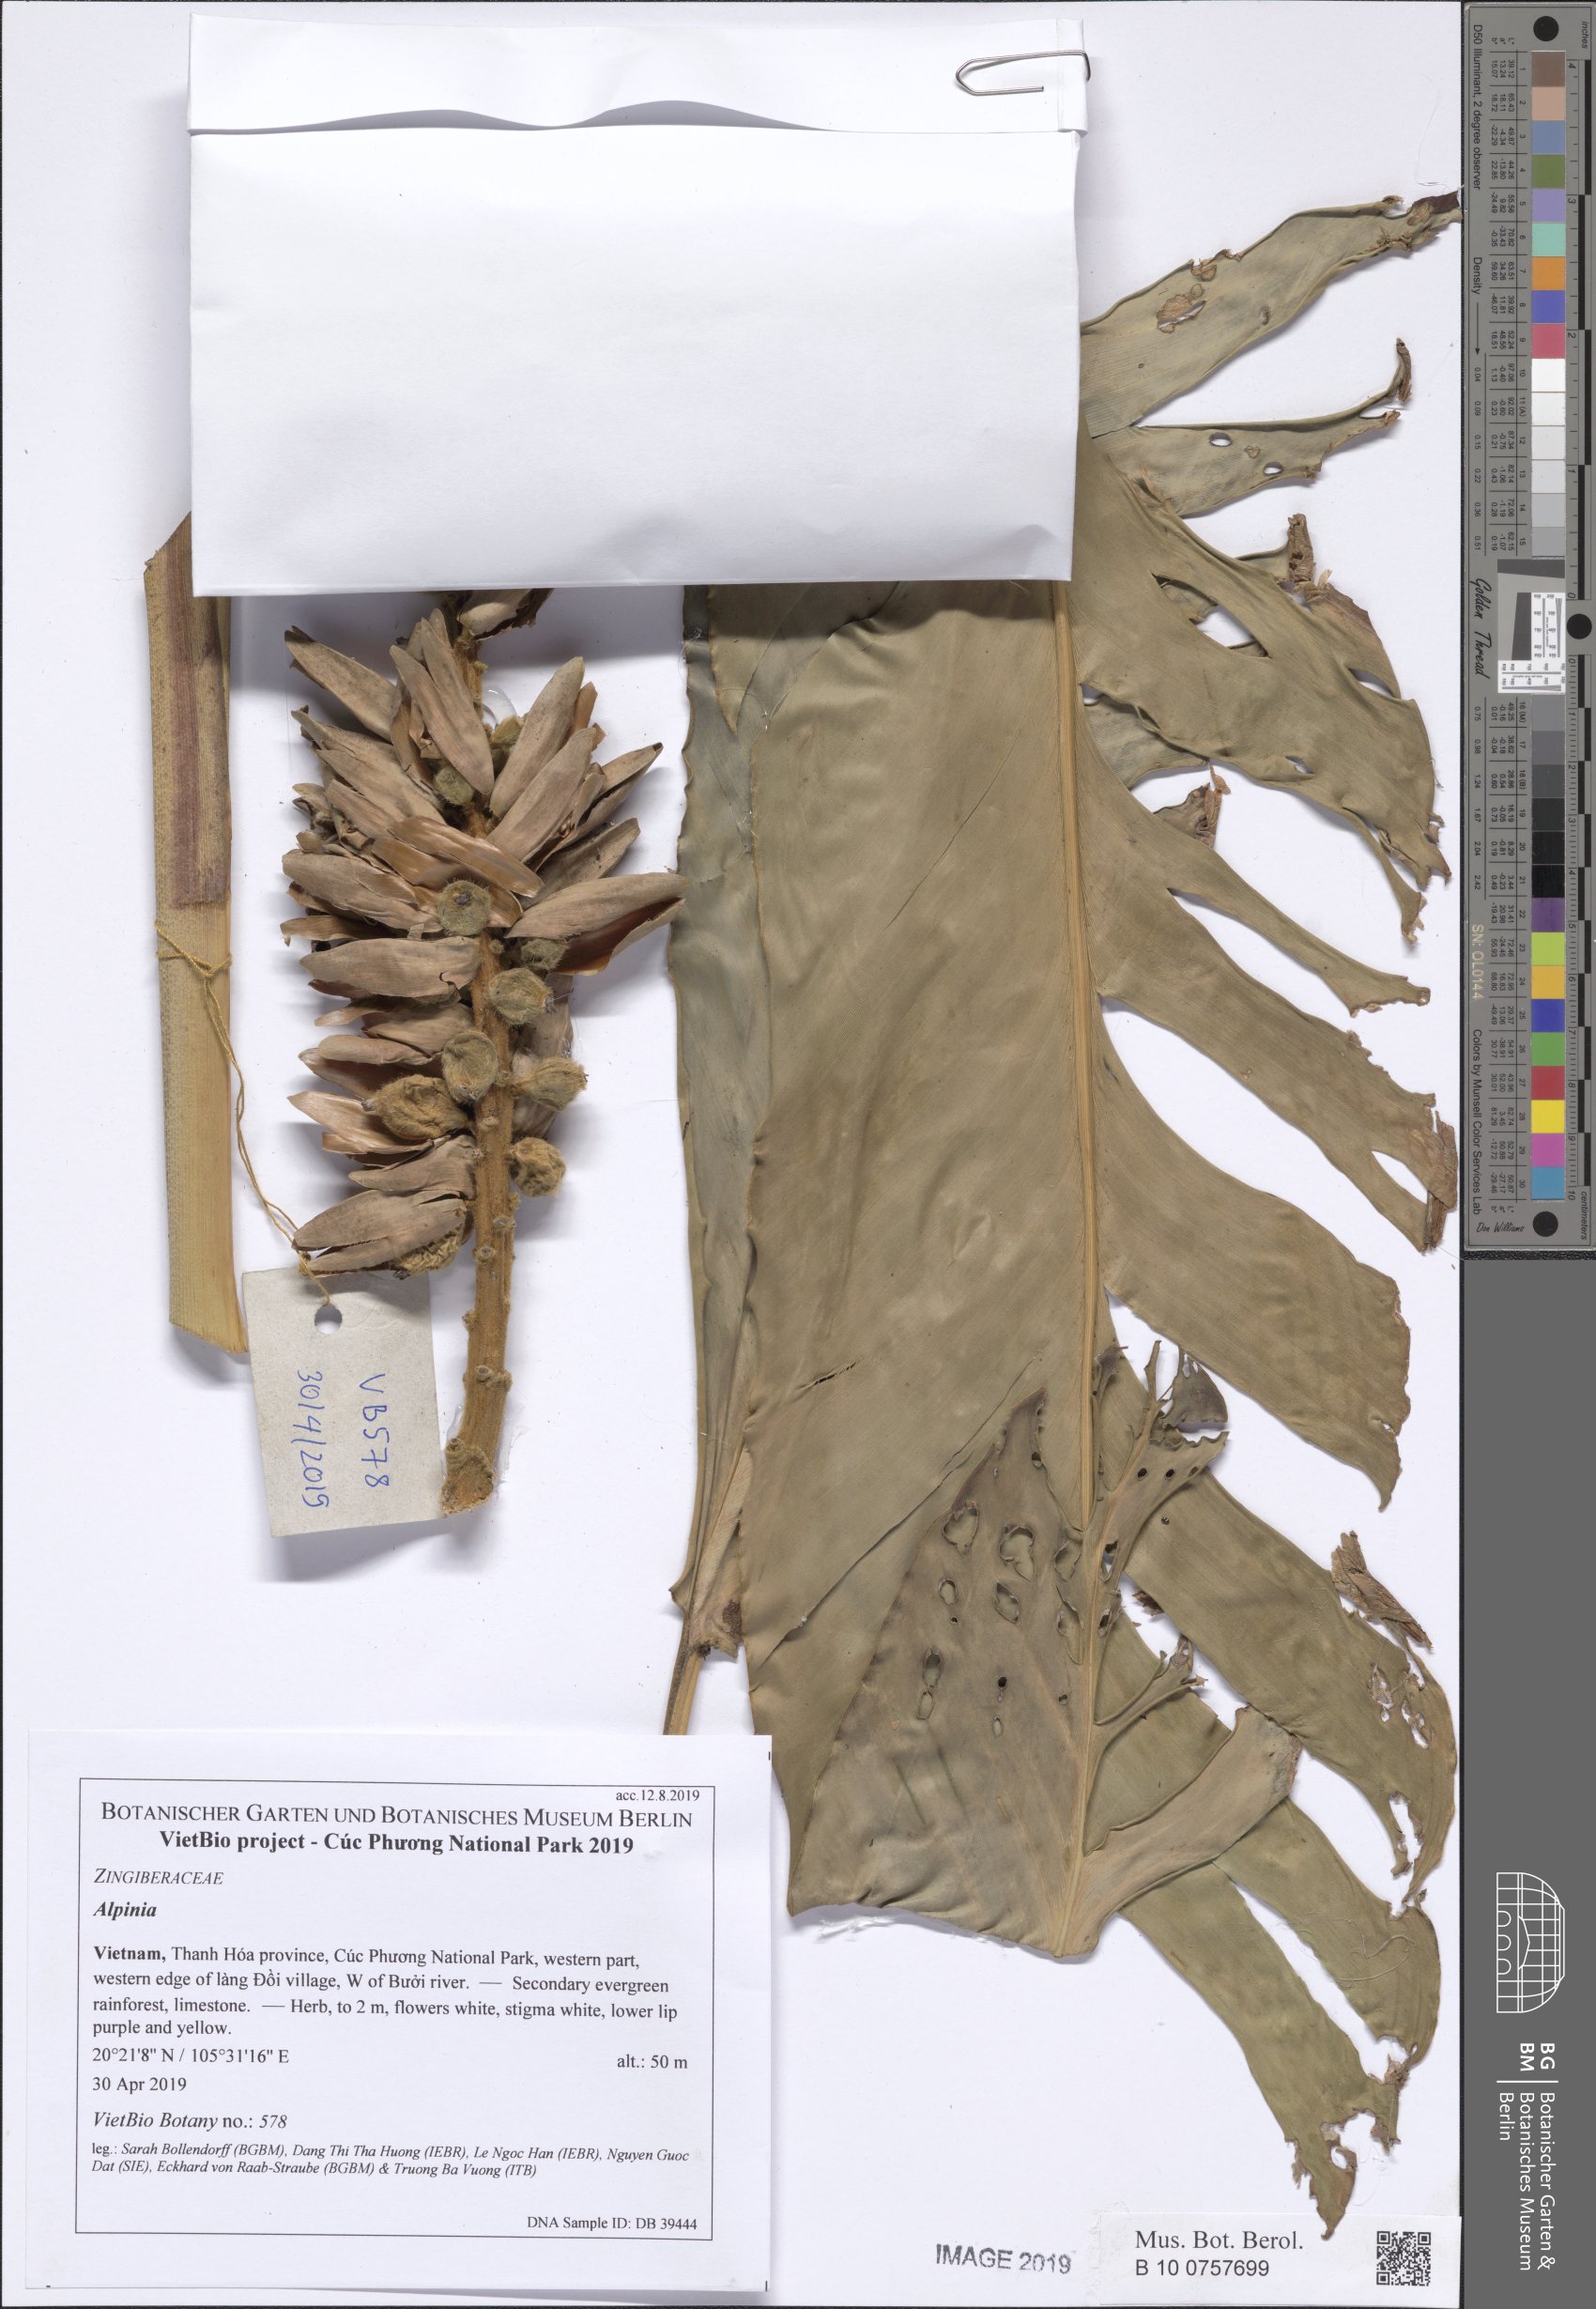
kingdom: Plantae
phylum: Tracheophyta
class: Liliopsida
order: Zingiberales
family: Zingiberaceae
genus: Alpinia
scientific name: Alpinia
